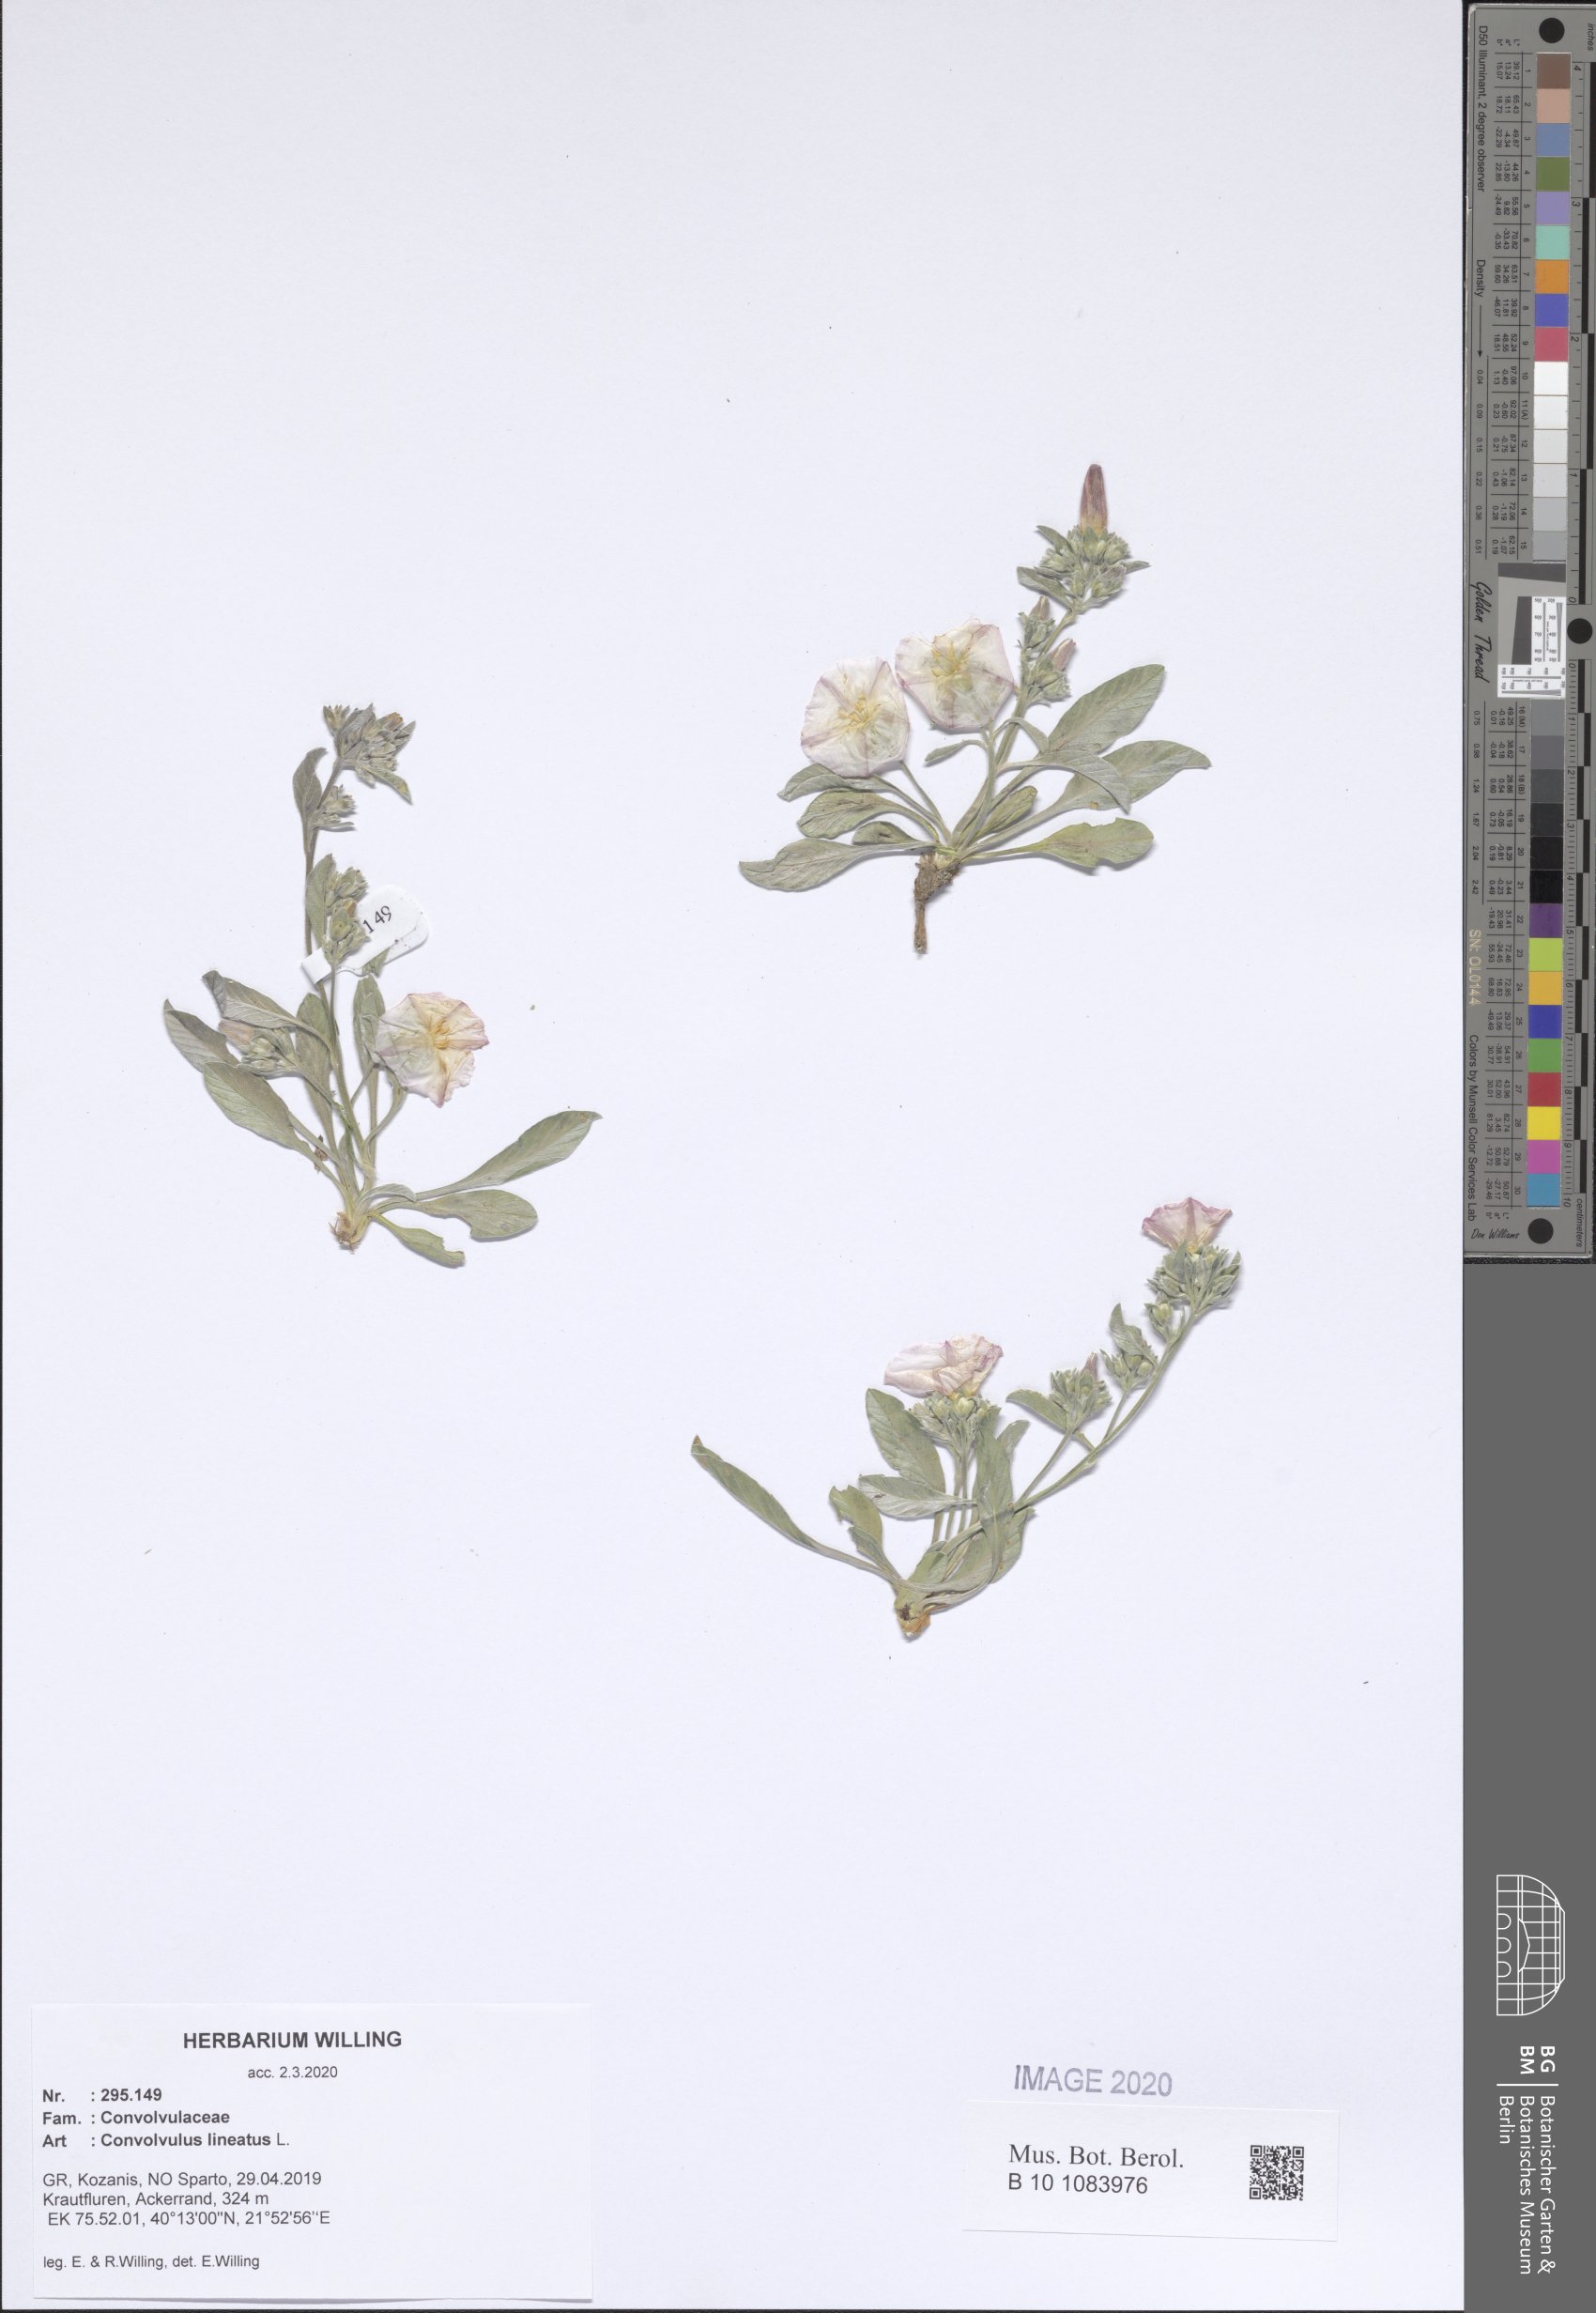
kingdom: Plantae
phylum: Tracheophyta
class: Magnoliopsida
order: Solanales
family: Convolvulaceae
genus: Convolvulus
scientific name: Convolvulus lineatus
